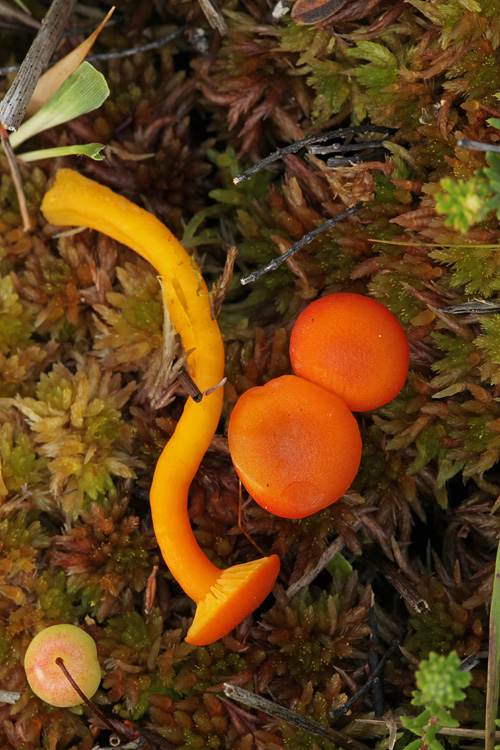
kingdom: Fungi
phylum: Basidiomycota
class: Agaricomycetes
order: Agaricales
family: Hygrophoraceae
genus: Hygrocybe
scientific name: Hygrocybe substrangulata
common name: kær-vokshat
